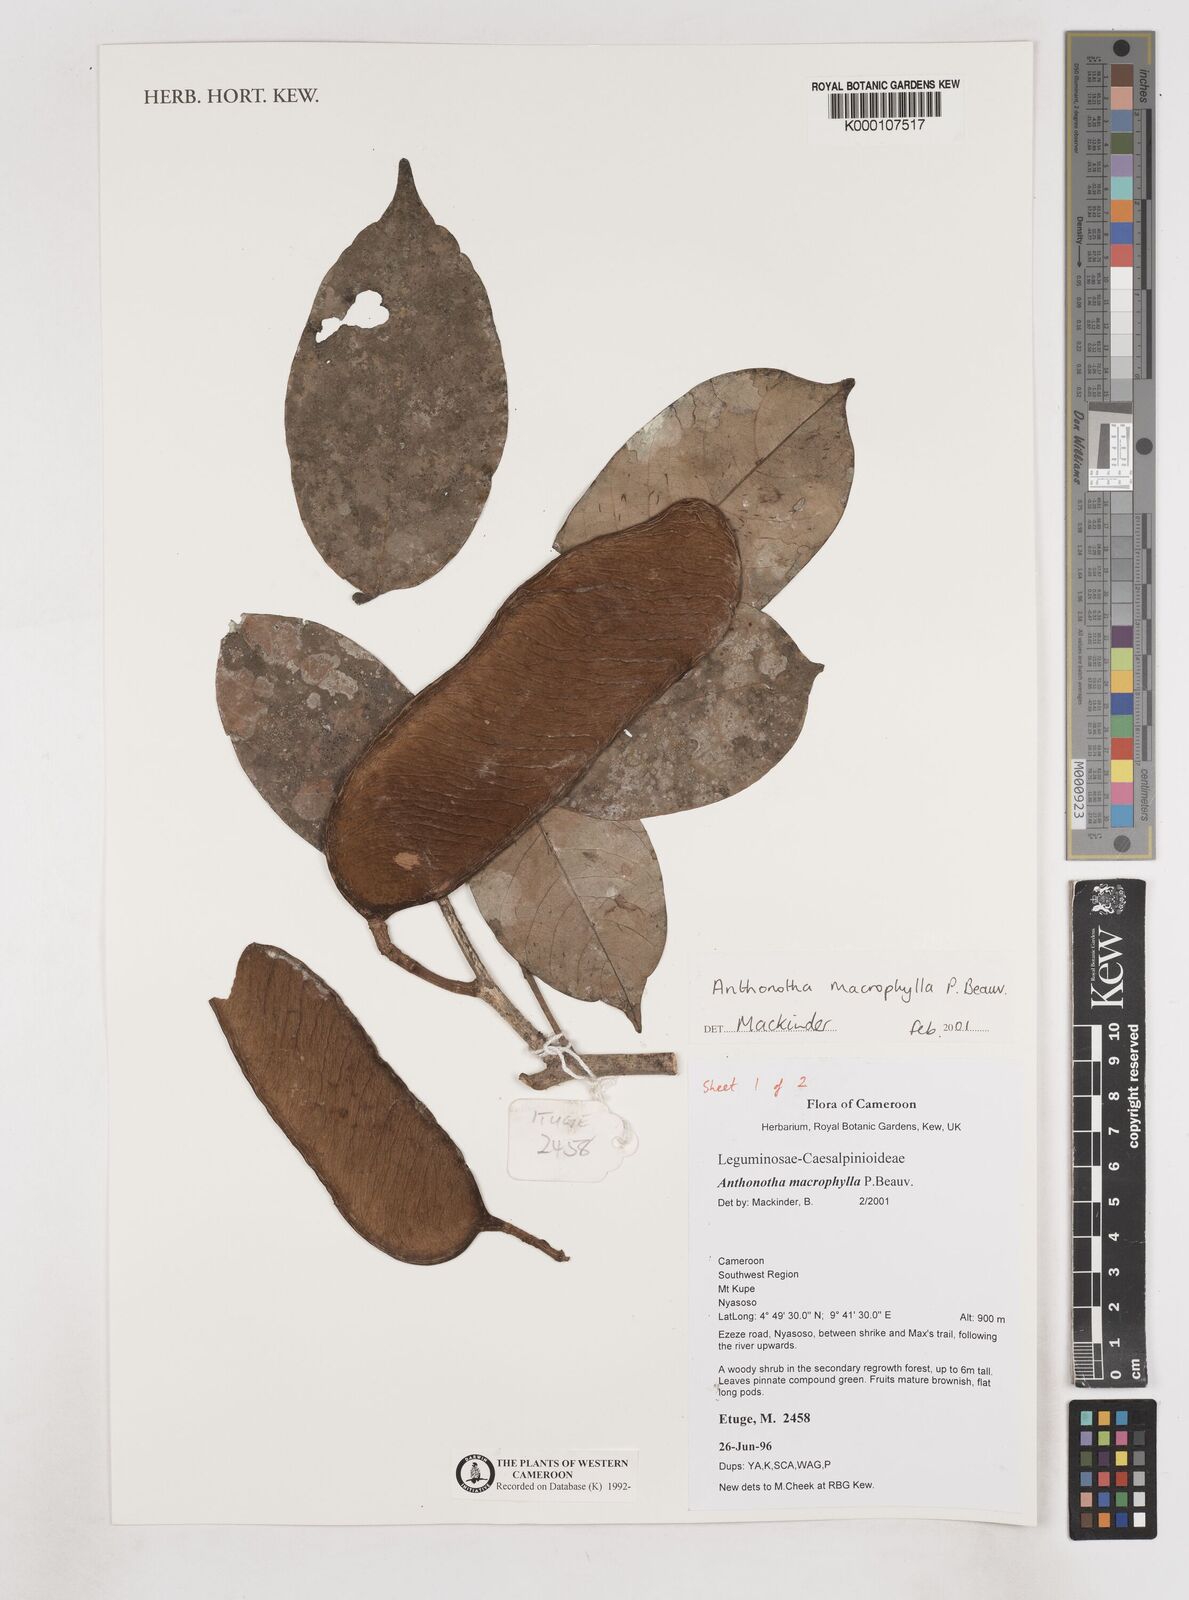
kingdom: Plantae
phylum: Tracheophyta
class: Magnoliopsida
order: Fabales
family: Fabaceae
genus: Anthonotha
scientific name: Anthonotha macrophylla
